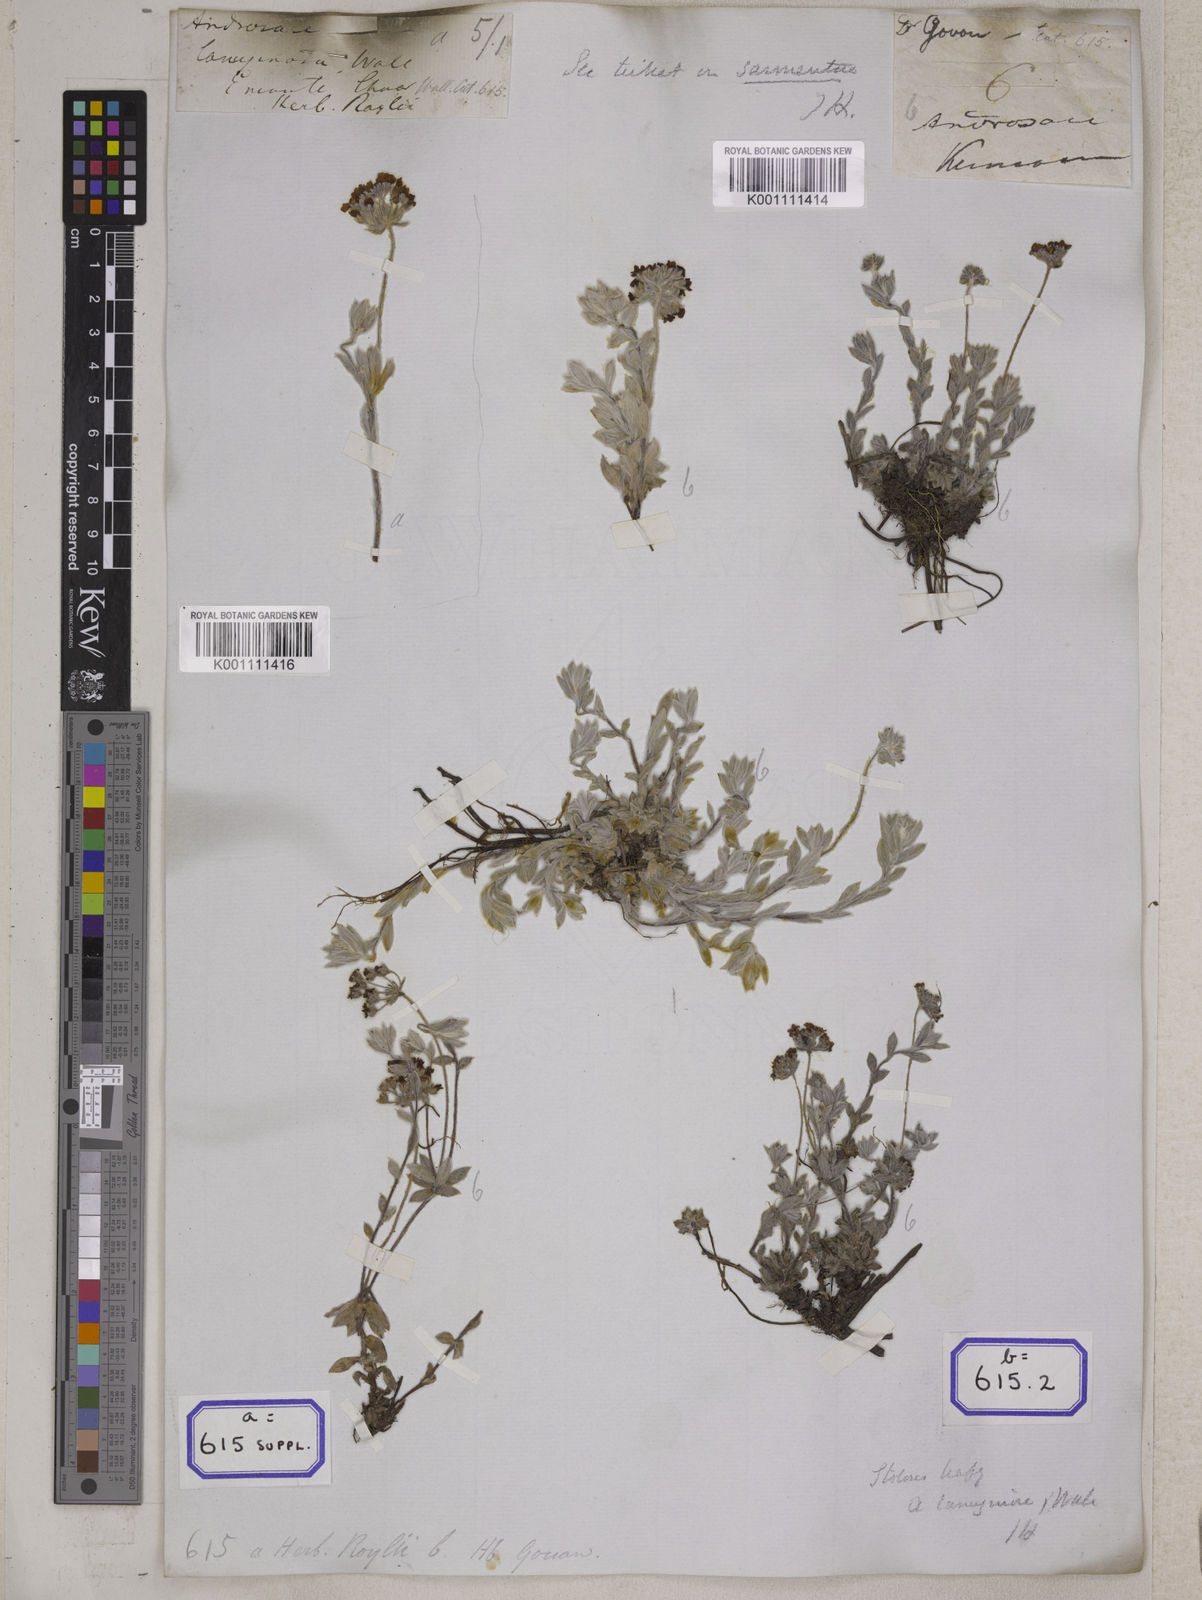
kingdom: Plantae
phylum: Tracheophyta
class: Magnoliopsida
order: Ericales
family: Primulaceae
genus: Androsace
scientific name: Androsace lanuginosa
